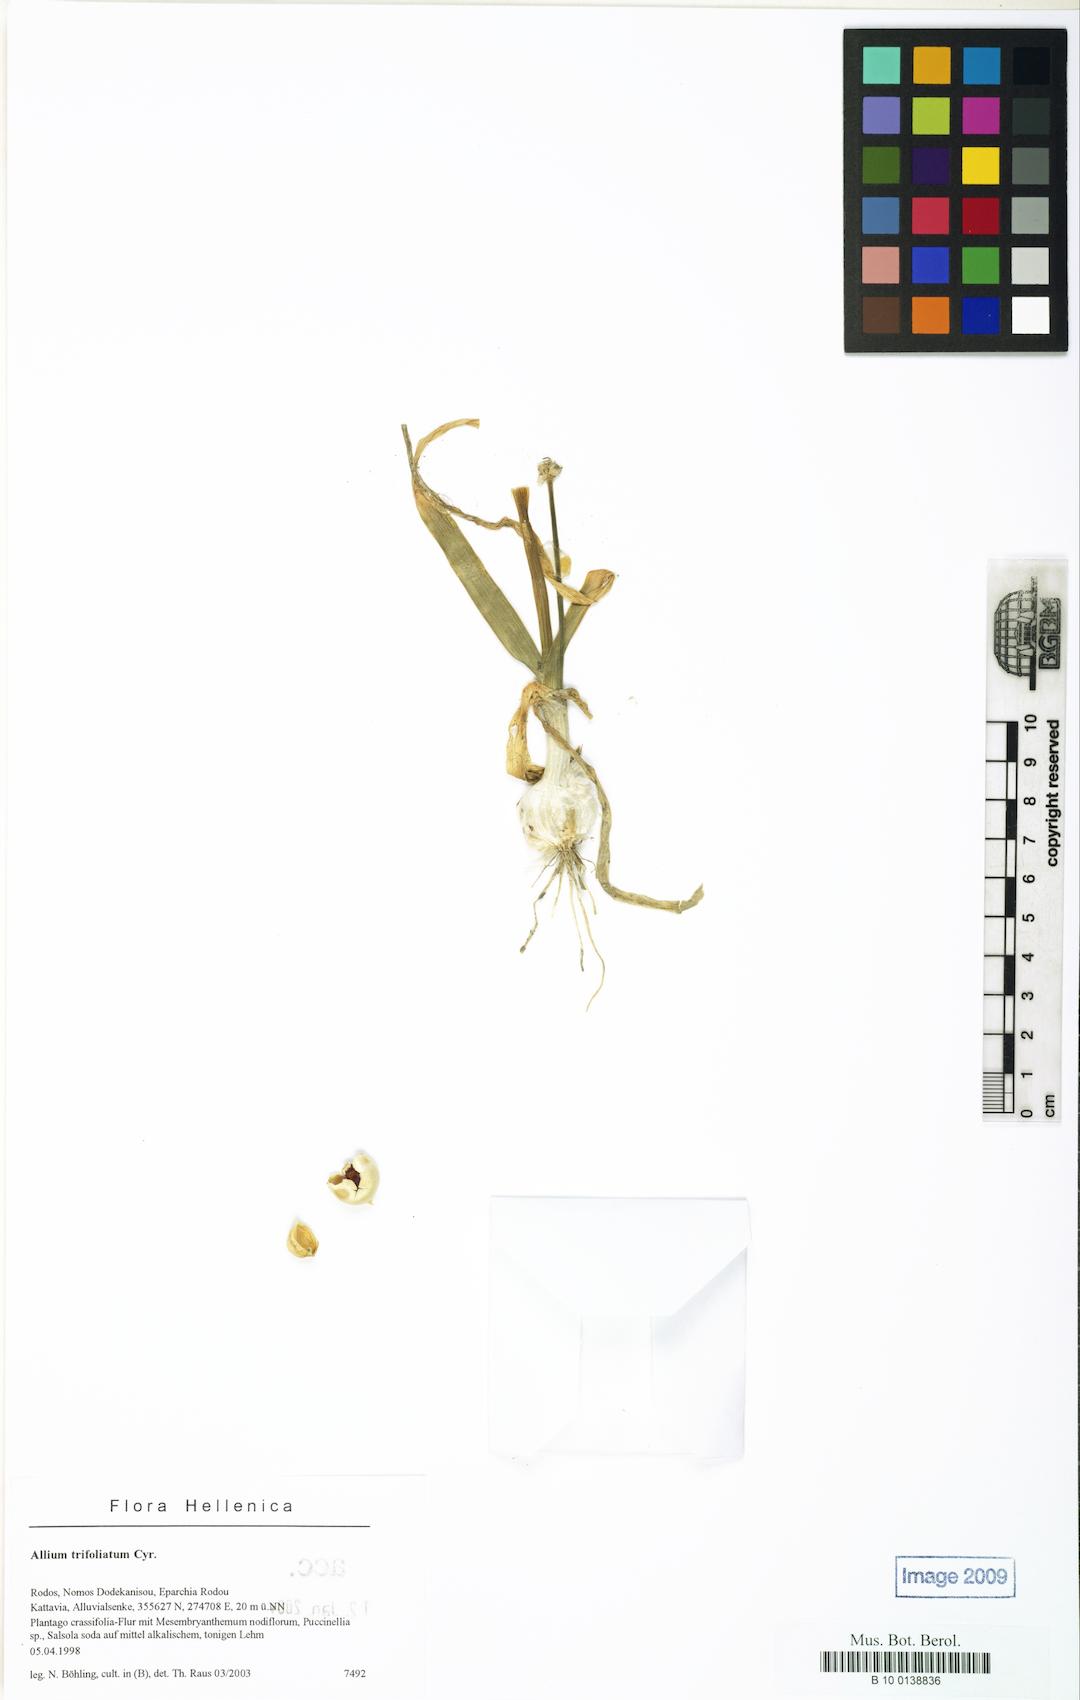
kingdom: Plantae
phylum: Tracheophyta
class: Liliopsida
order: Asparagales
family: Amaryllidaceae
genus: Allium
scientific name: Allium trifoliatum
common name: Pink garlic
